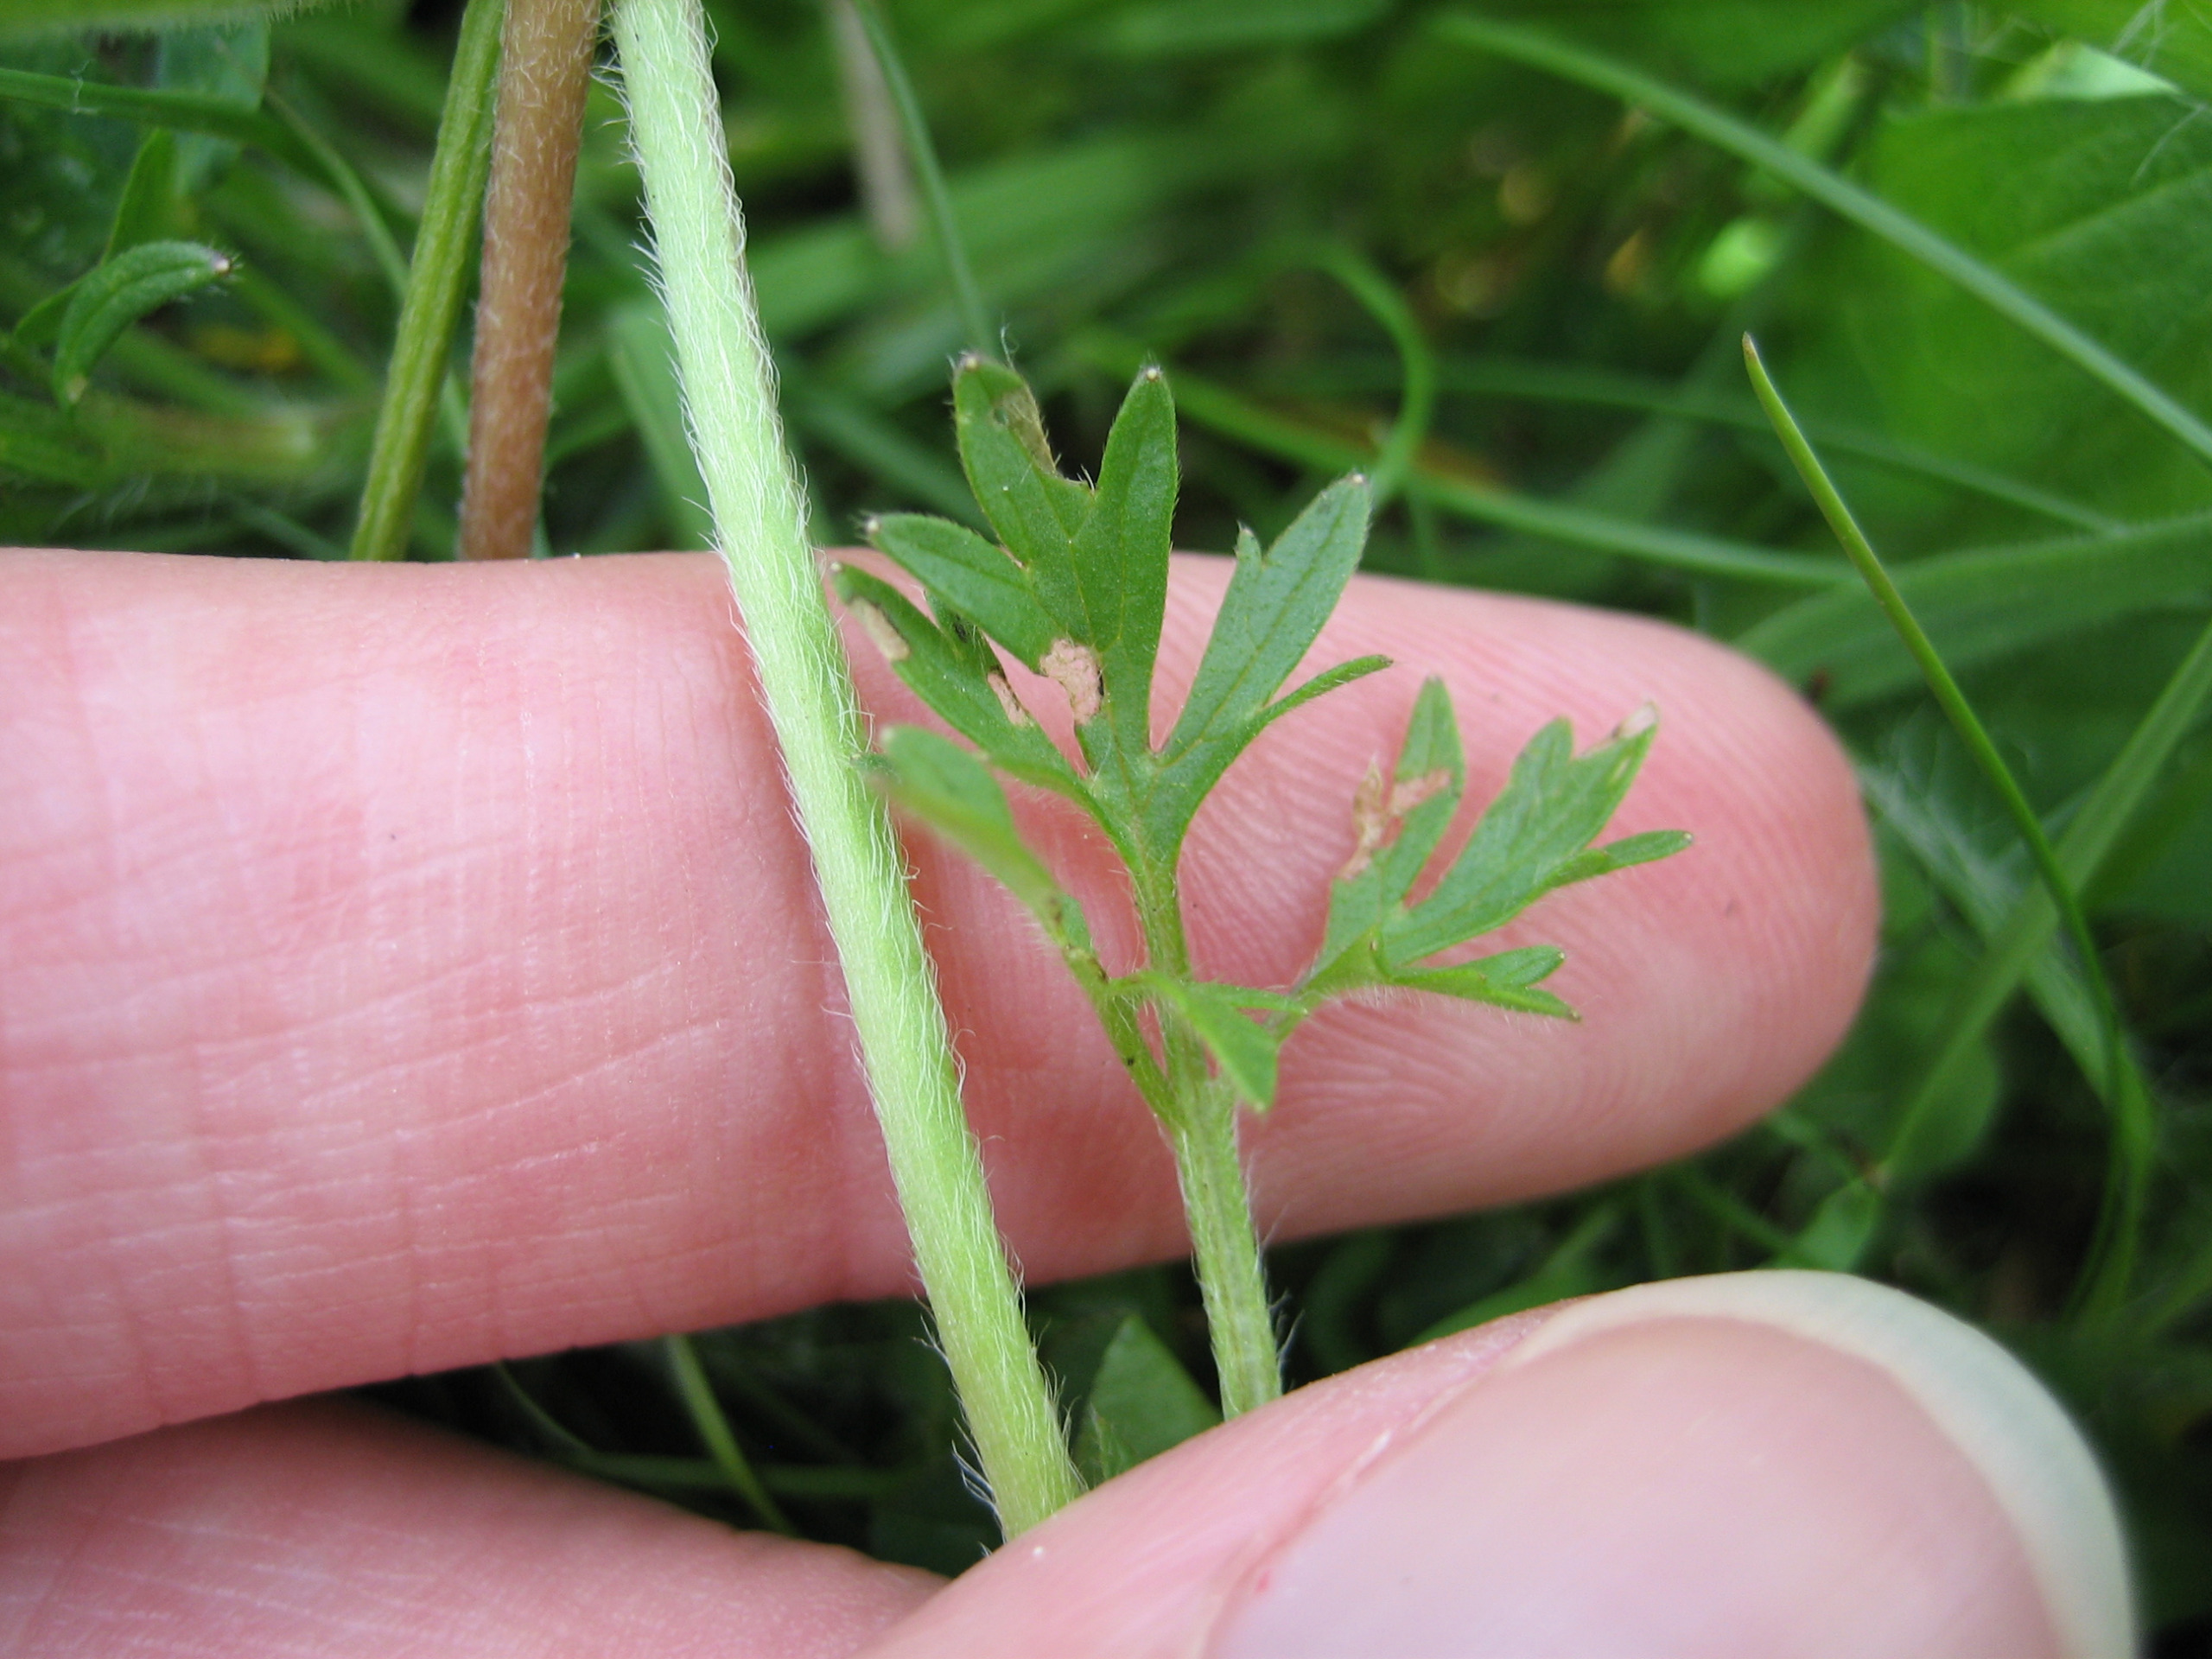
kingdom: Plantae
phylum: Tracheophyta
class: Magnoliopsida
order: Ranunculales
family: Ranunculaceae
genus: Ranunculus
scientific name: Ranunculus bulbosus
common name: Knold-ranunkel
